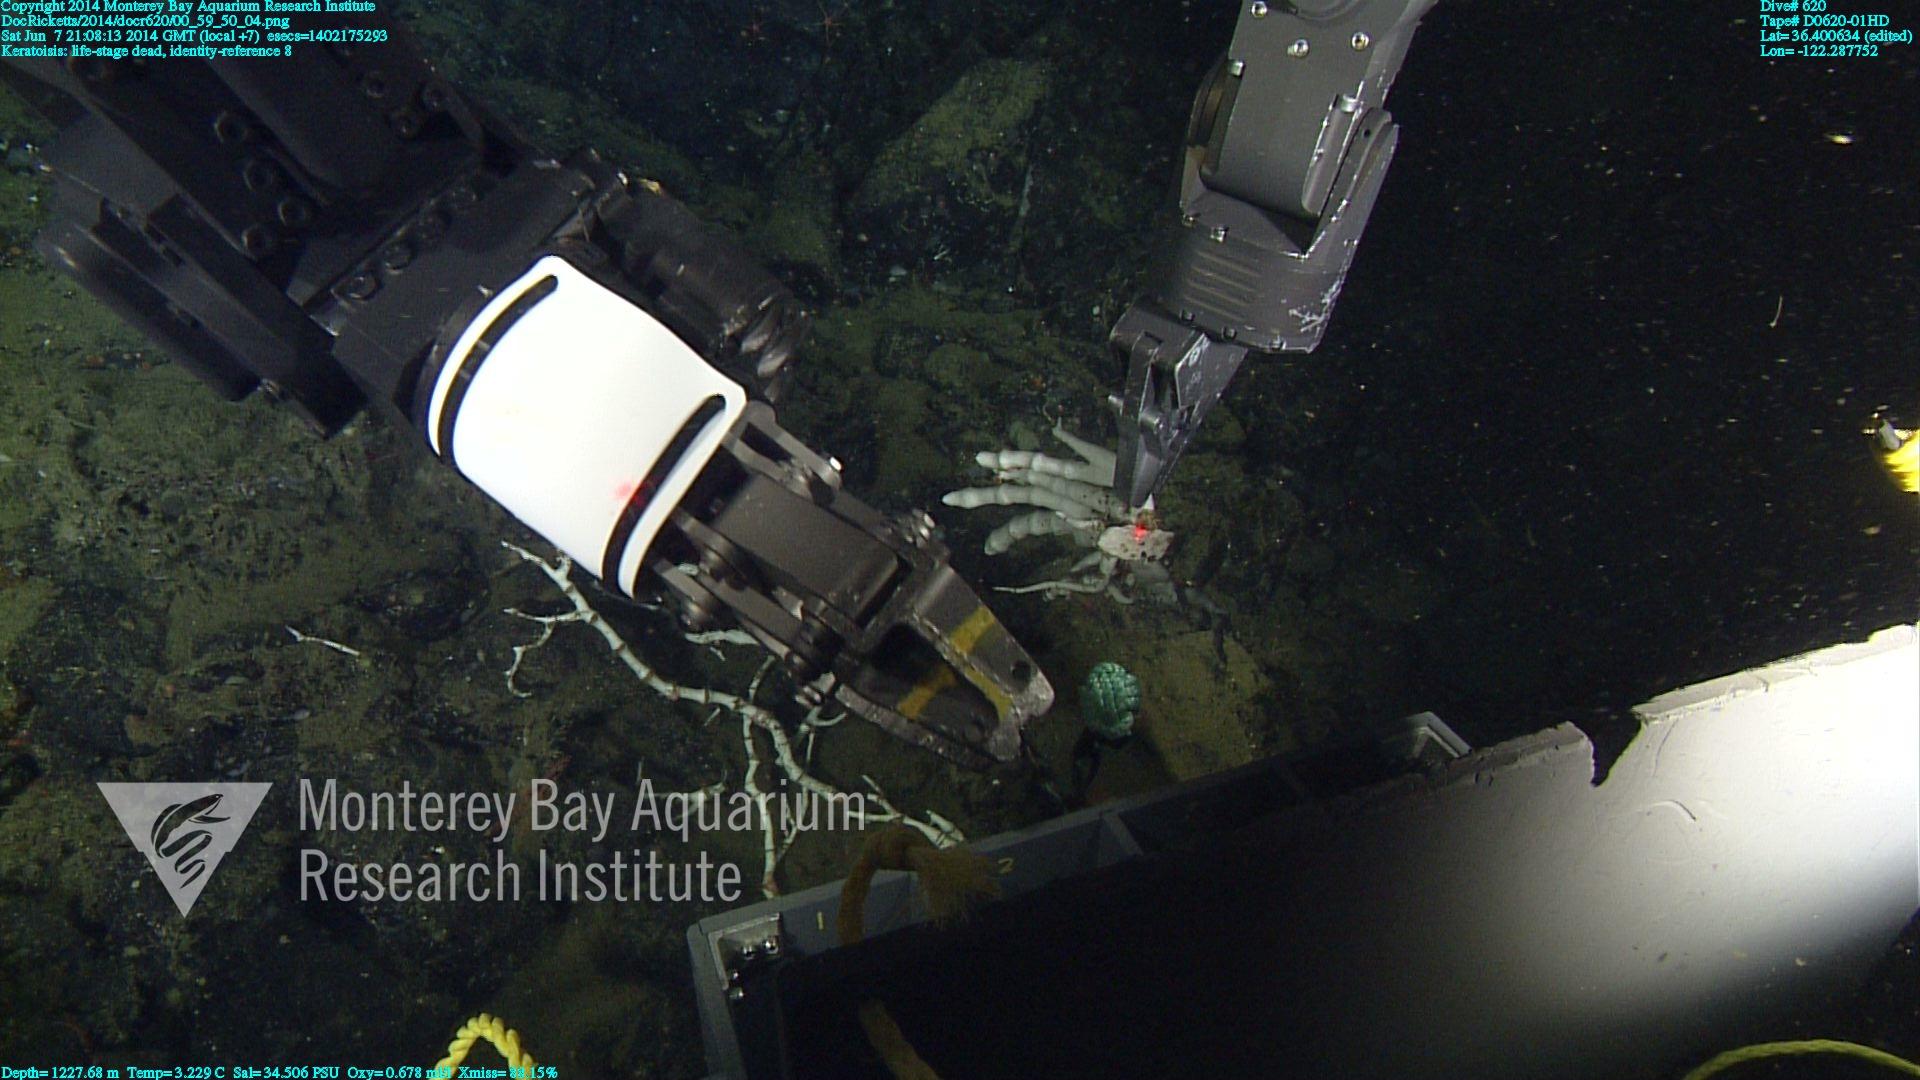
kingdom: Animalia
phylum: Cnidaria
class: Anthozoa
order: Scleralcyonacea
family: Keratoisididae
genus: Keratoisis
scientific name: Keratoisis
